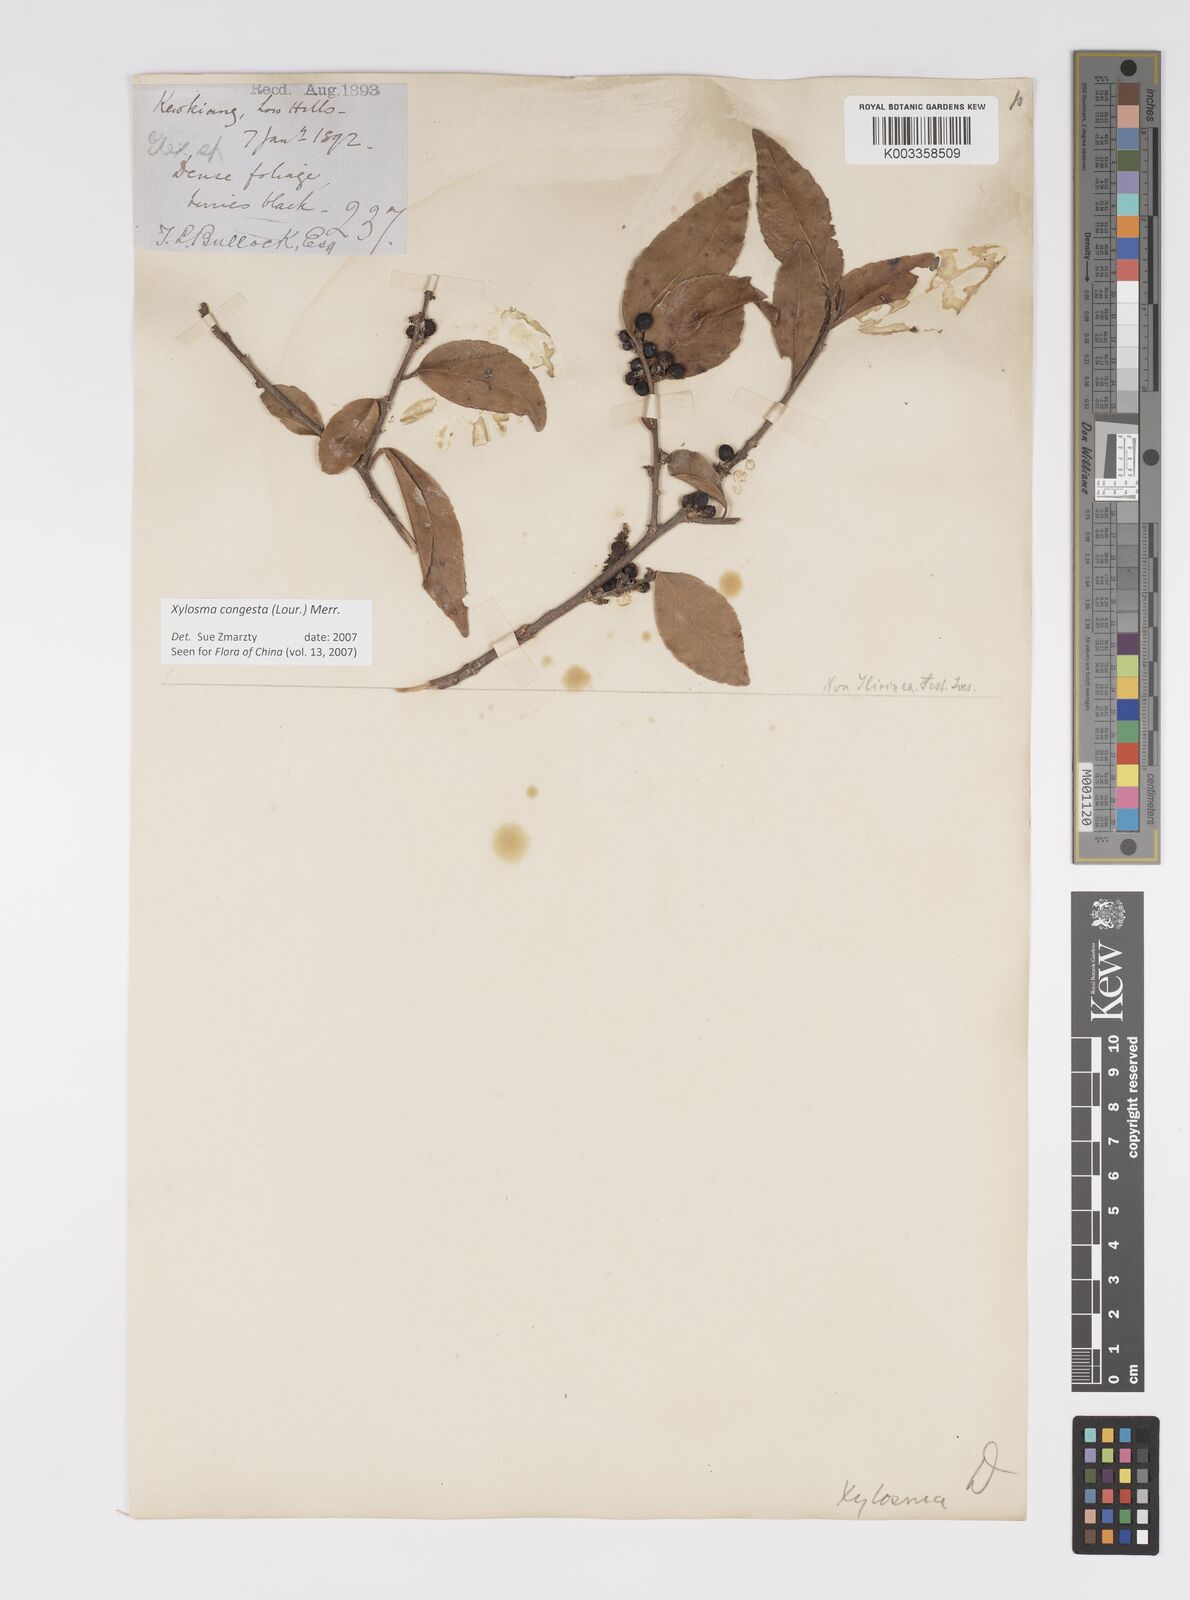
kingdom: Plantae
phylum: Tracheophyta
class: Magnoliopsida
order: Malpighiales
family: Salicaceae
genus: Xylosma
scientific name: Xylosma racemosum
